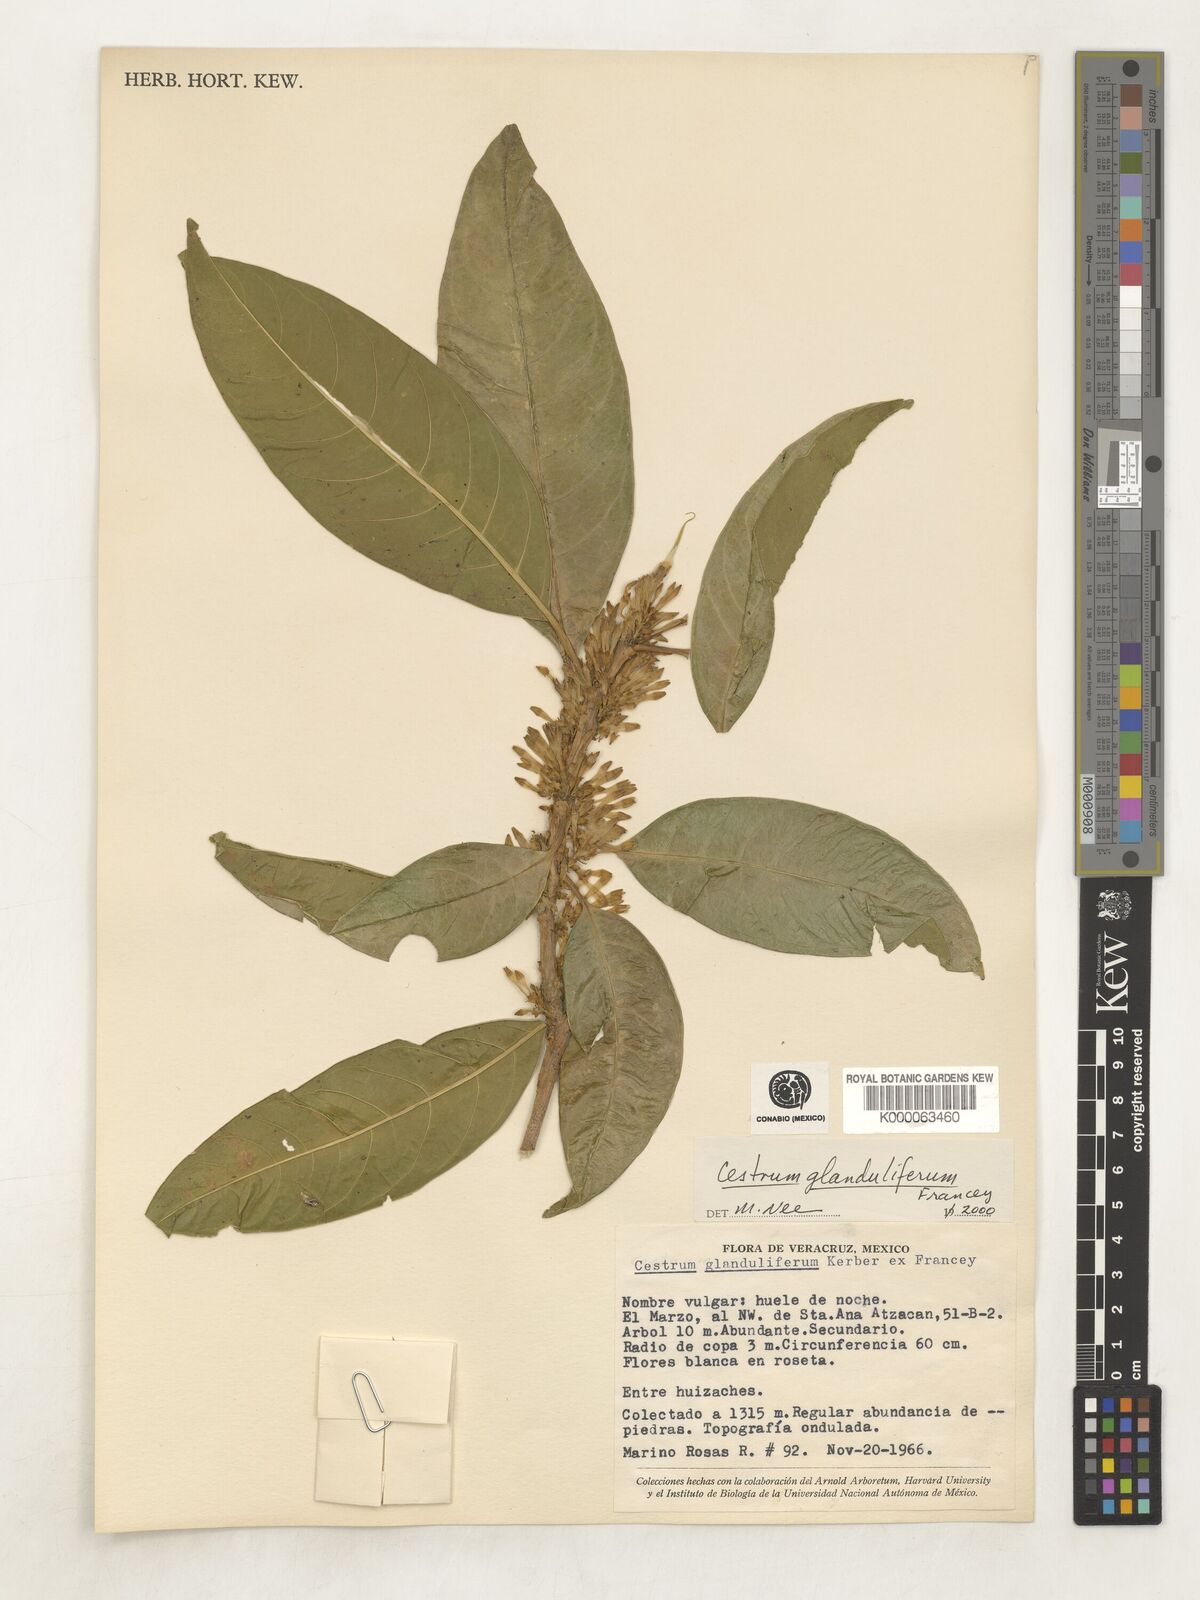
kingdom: Plantae
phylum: Tracheophyta
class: Magnoliopsida
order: Solanales
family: Solanaceae
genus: Cestrum
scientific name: Cestrum glanduliferum
